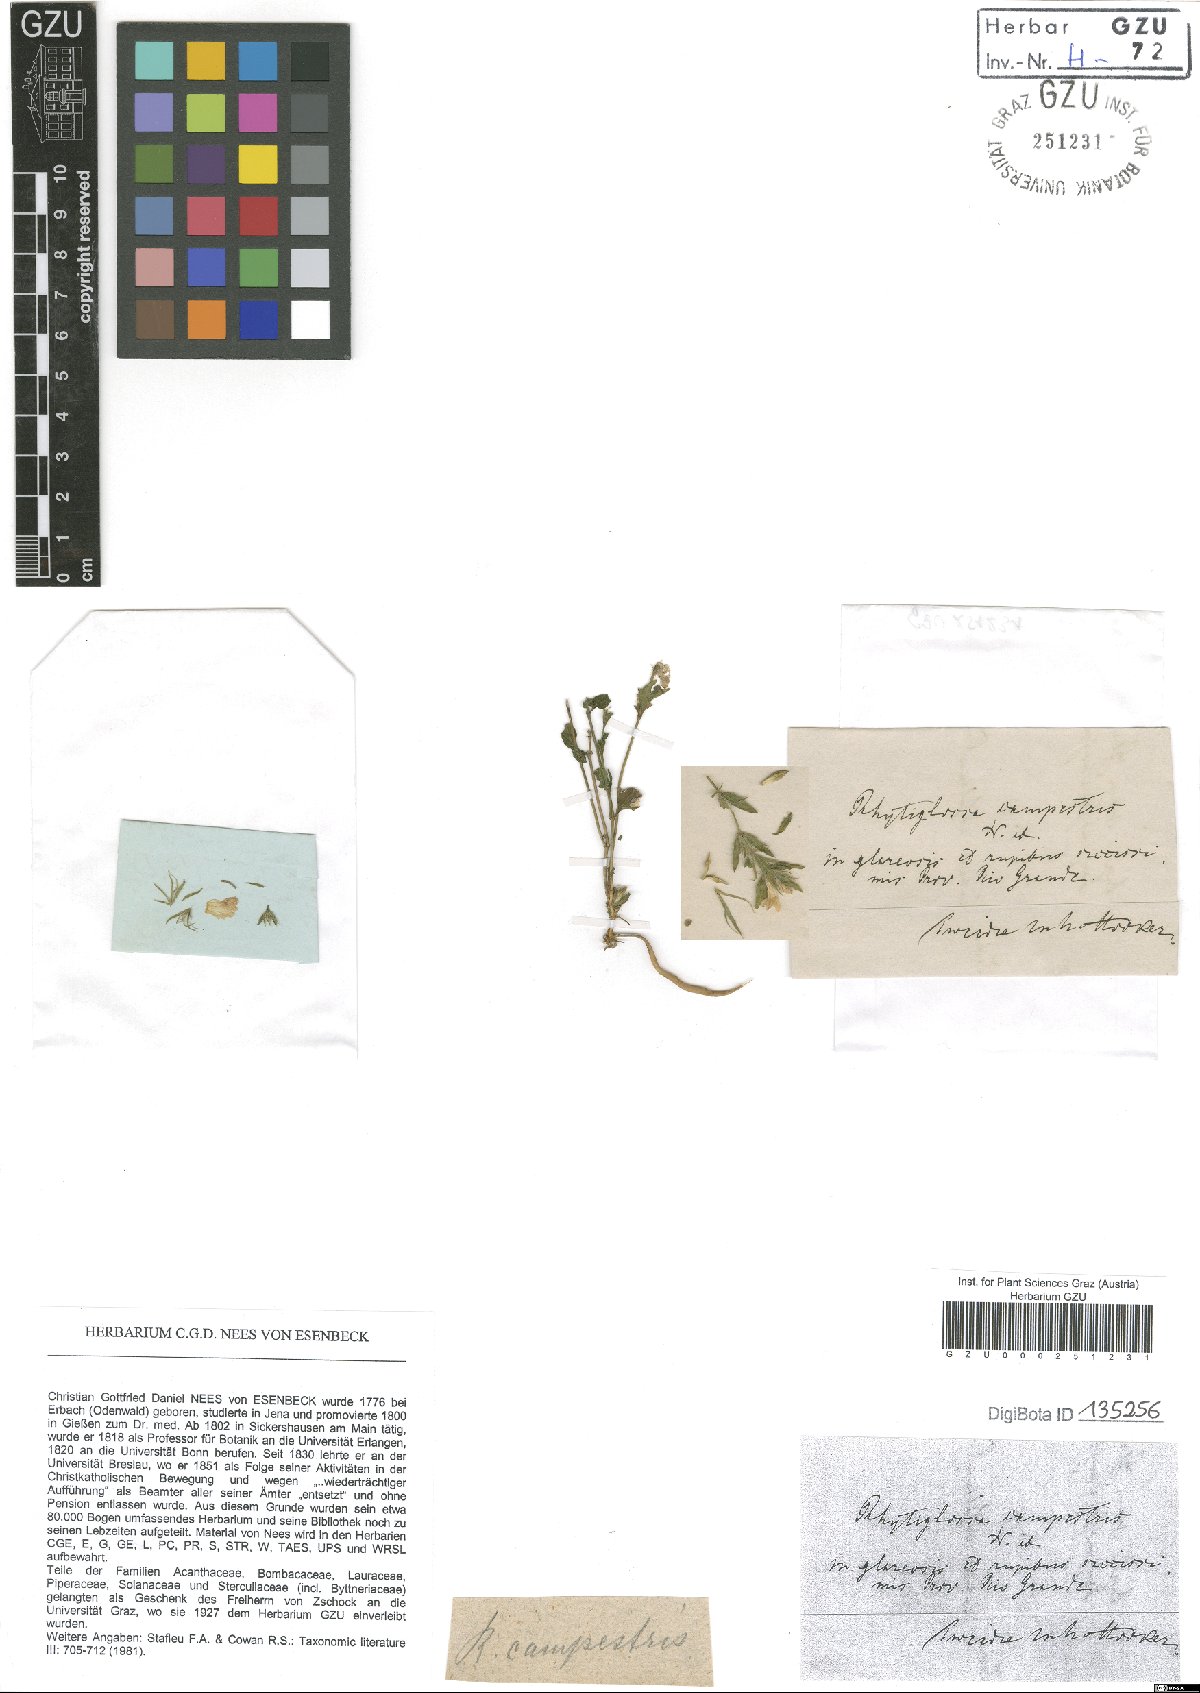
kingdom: Plantae
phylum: Tracheophyta
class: Magnoliopsida
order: Lamiales
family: Acanthaceae
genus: Justicia
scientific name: Justicia axillaris
